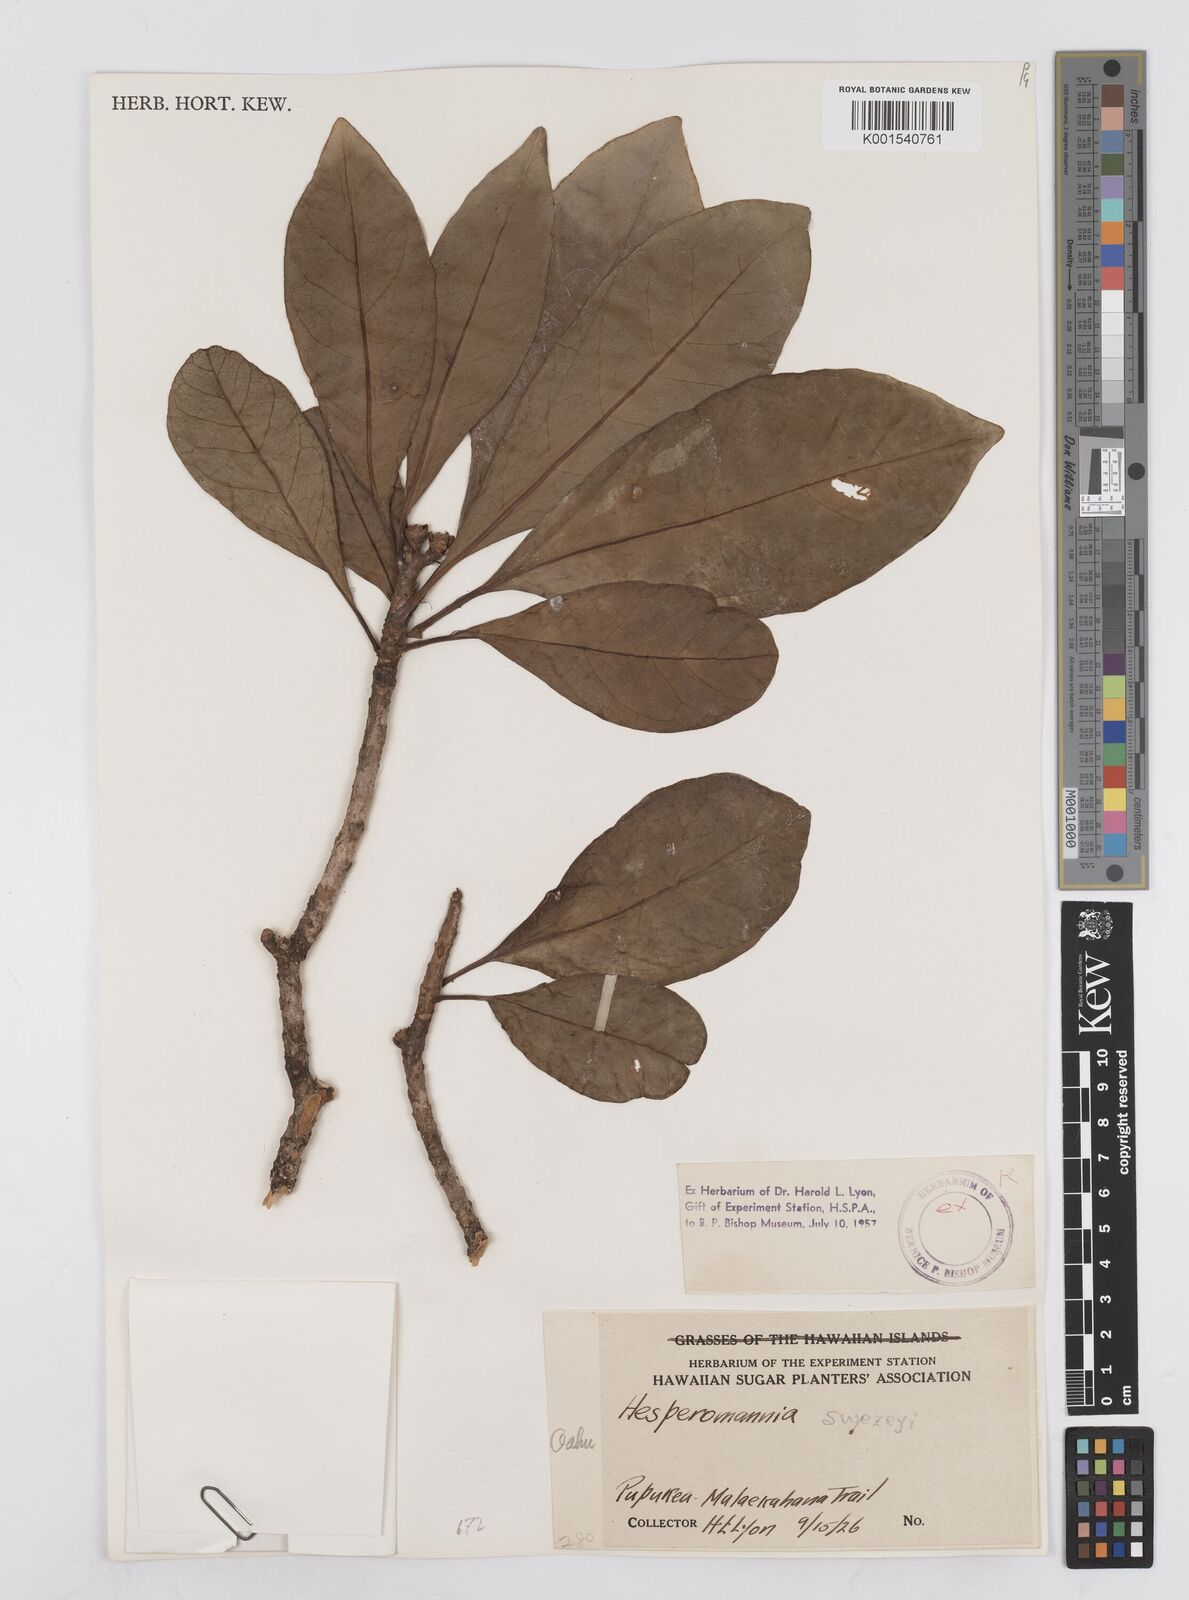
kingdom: Plantae
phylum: Tracheophyta
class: Magnoliopsida
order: Asterales
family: Asteraceae
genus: Hesperomannia
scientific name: Hesperomannia arborescens
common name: Lanai hesperomannia
